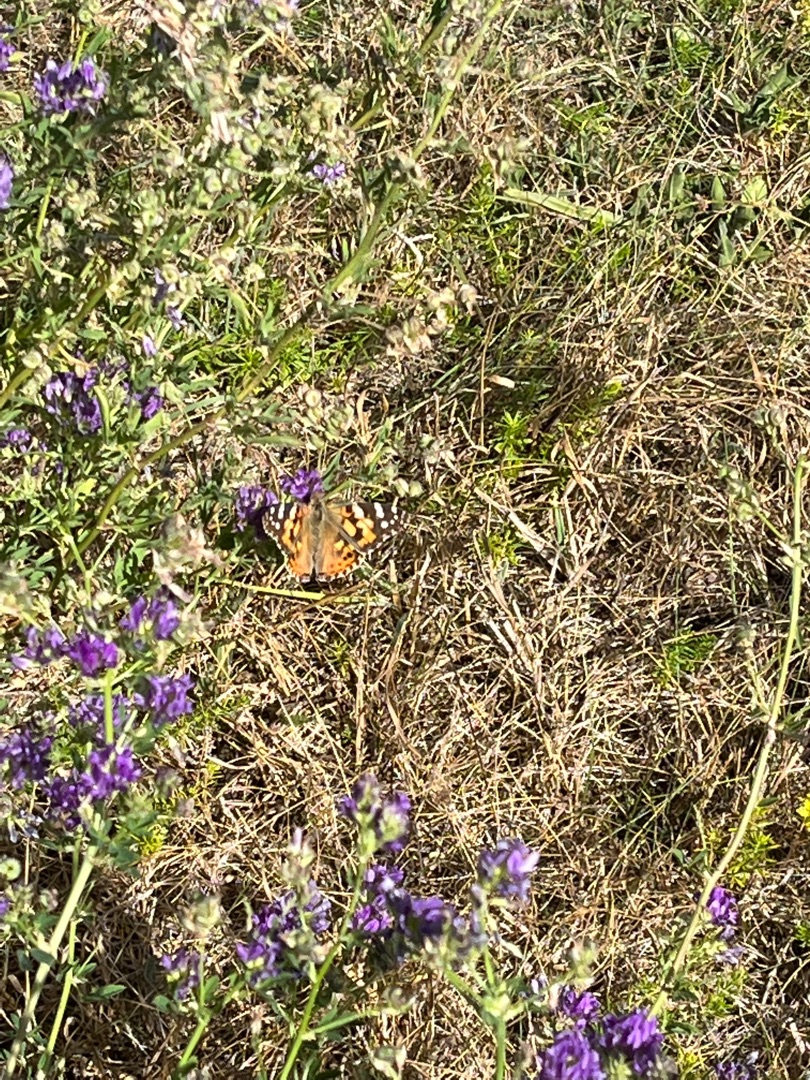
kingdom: Animalia
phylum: Arthropoda
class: Insecta
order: Lepidoptera
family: Nymphalidae
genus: Vanessa
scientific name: Vanessa cardui
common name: Tidselsommerfugl
